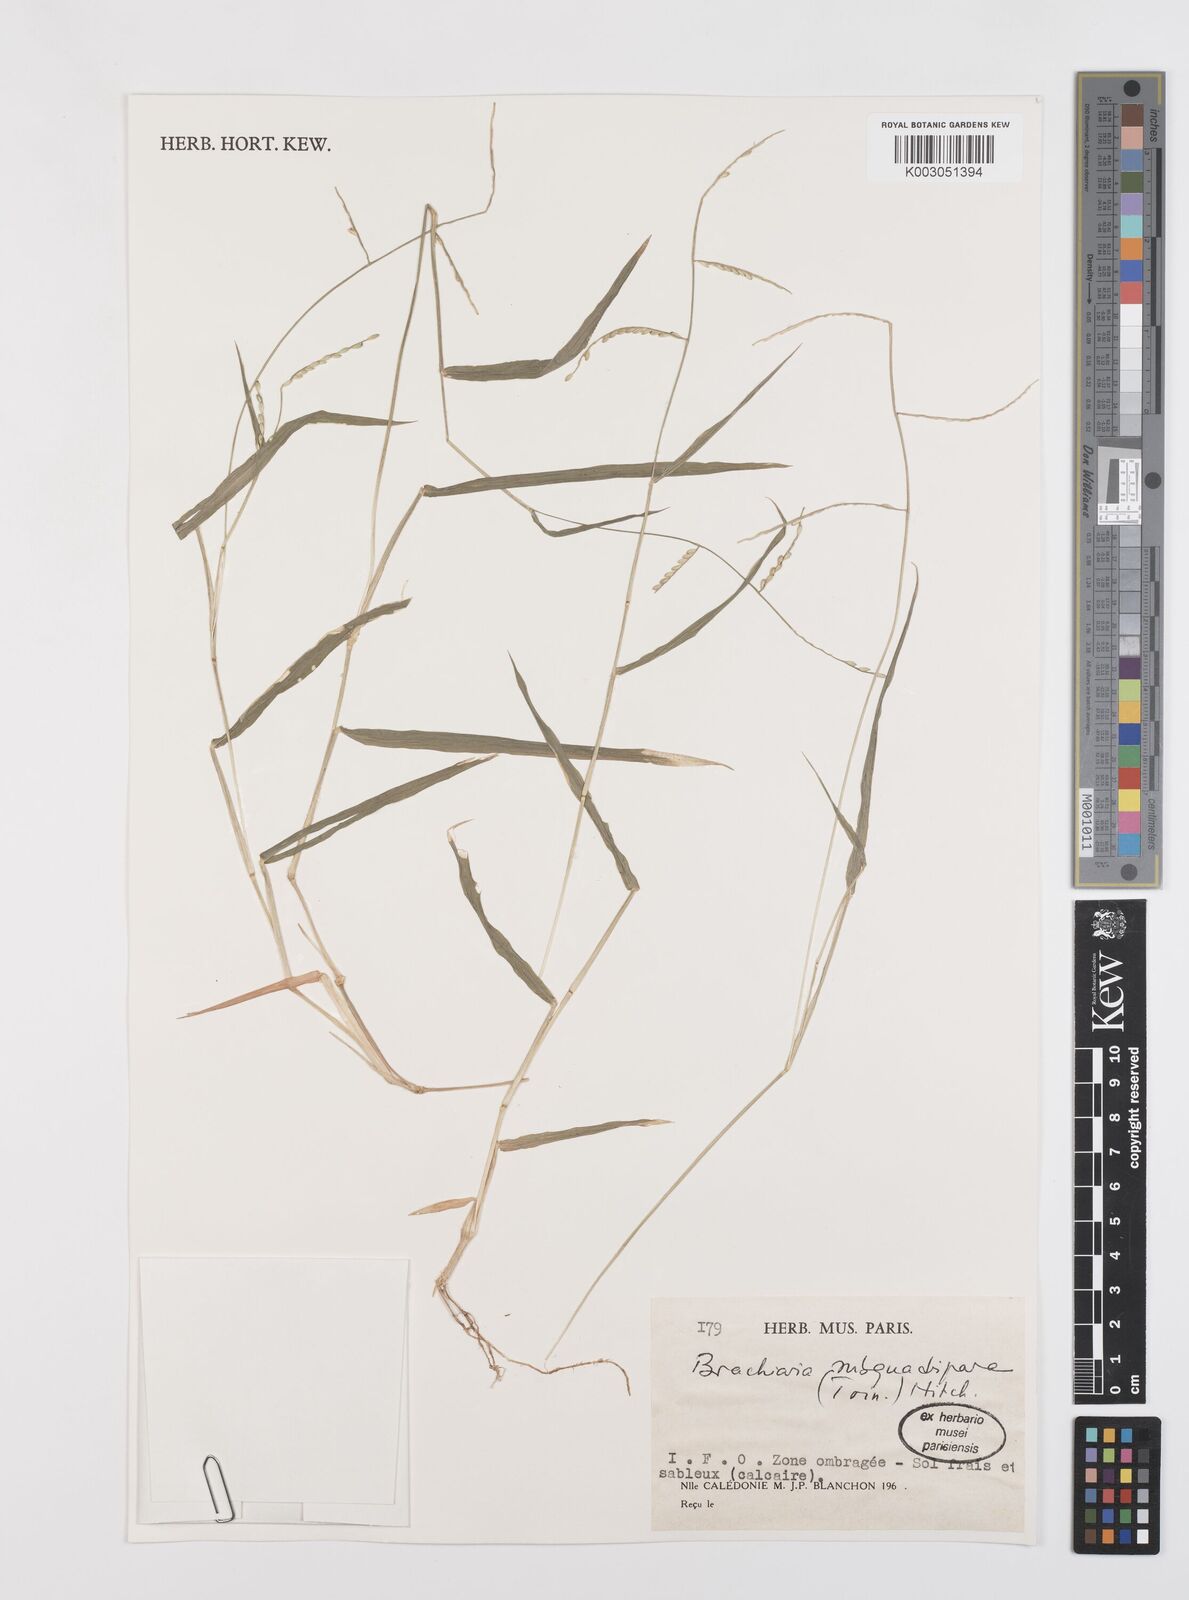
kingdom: Plantae
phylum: Tracheophyta
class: Liliopsida
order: Poales
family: Poaceae
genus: Urochloa
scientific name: Urochloa subquadripara
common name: Armgrass millet
